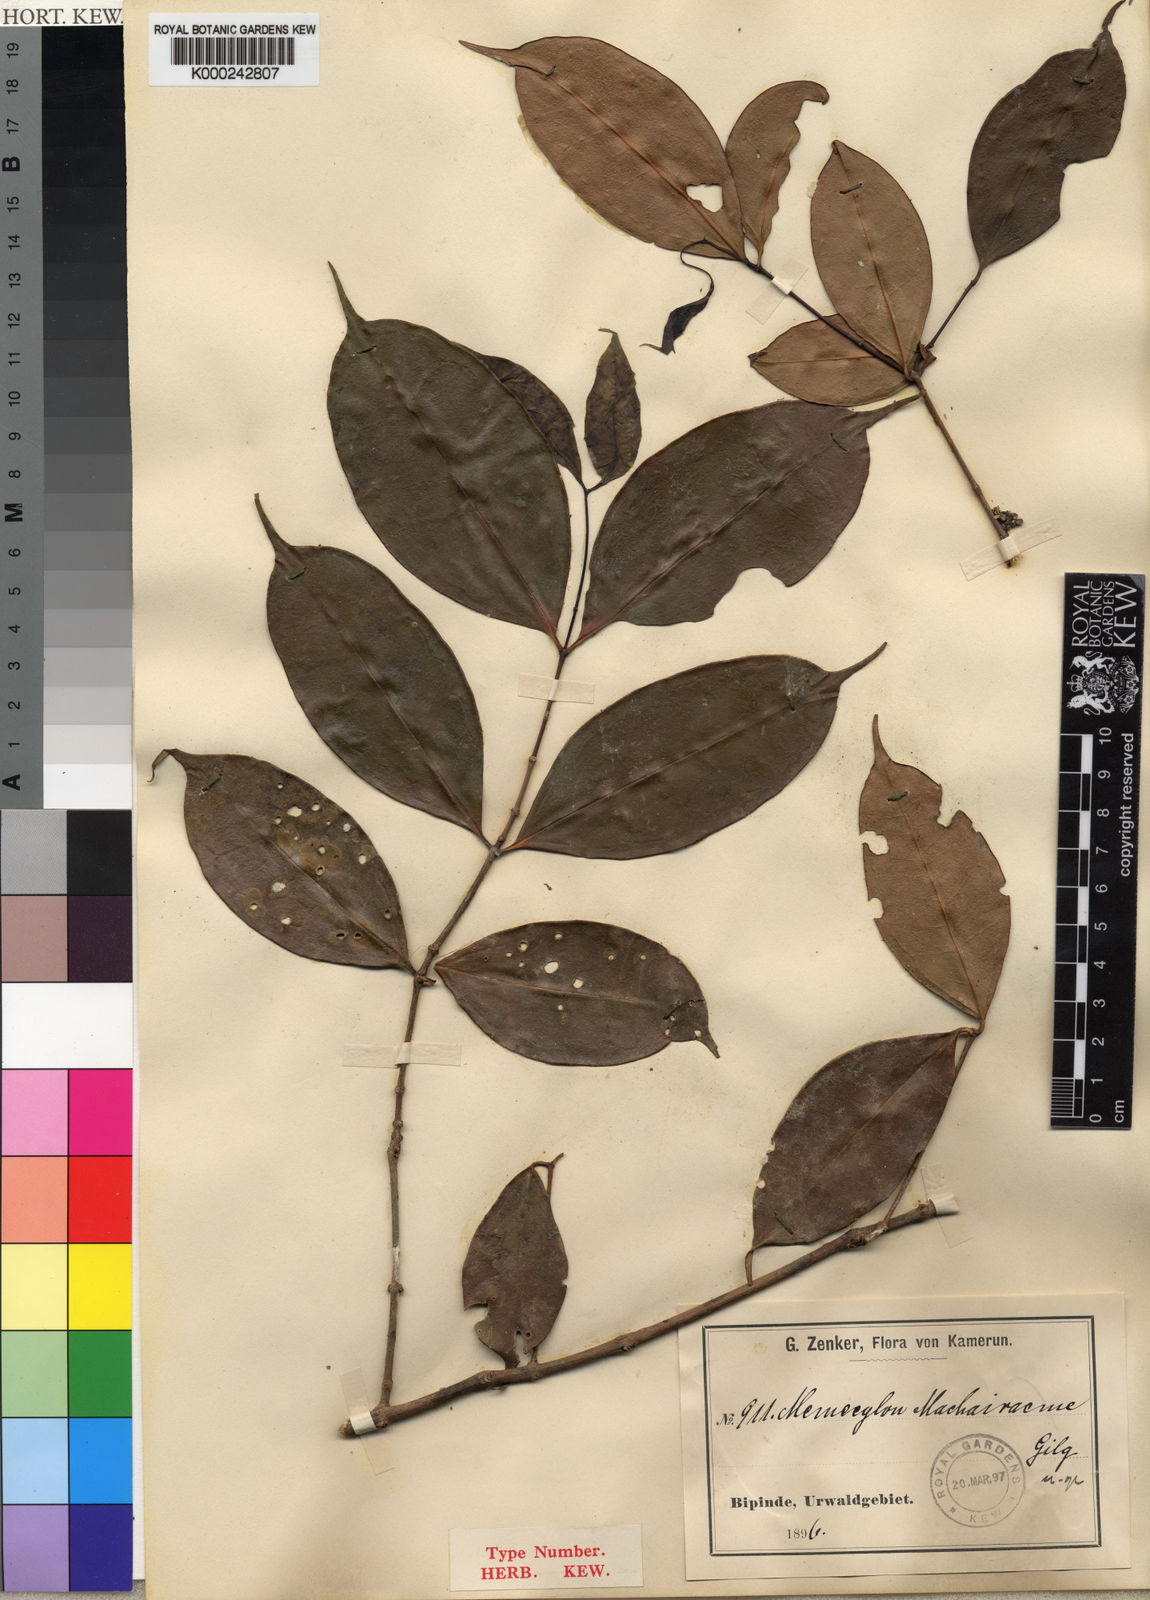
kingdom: Plantae
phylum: Tracheophyta
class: Magnoliopsida
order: Myrtales
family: Melastomataceae
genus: Memecylon
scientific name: Memecylon virescens
